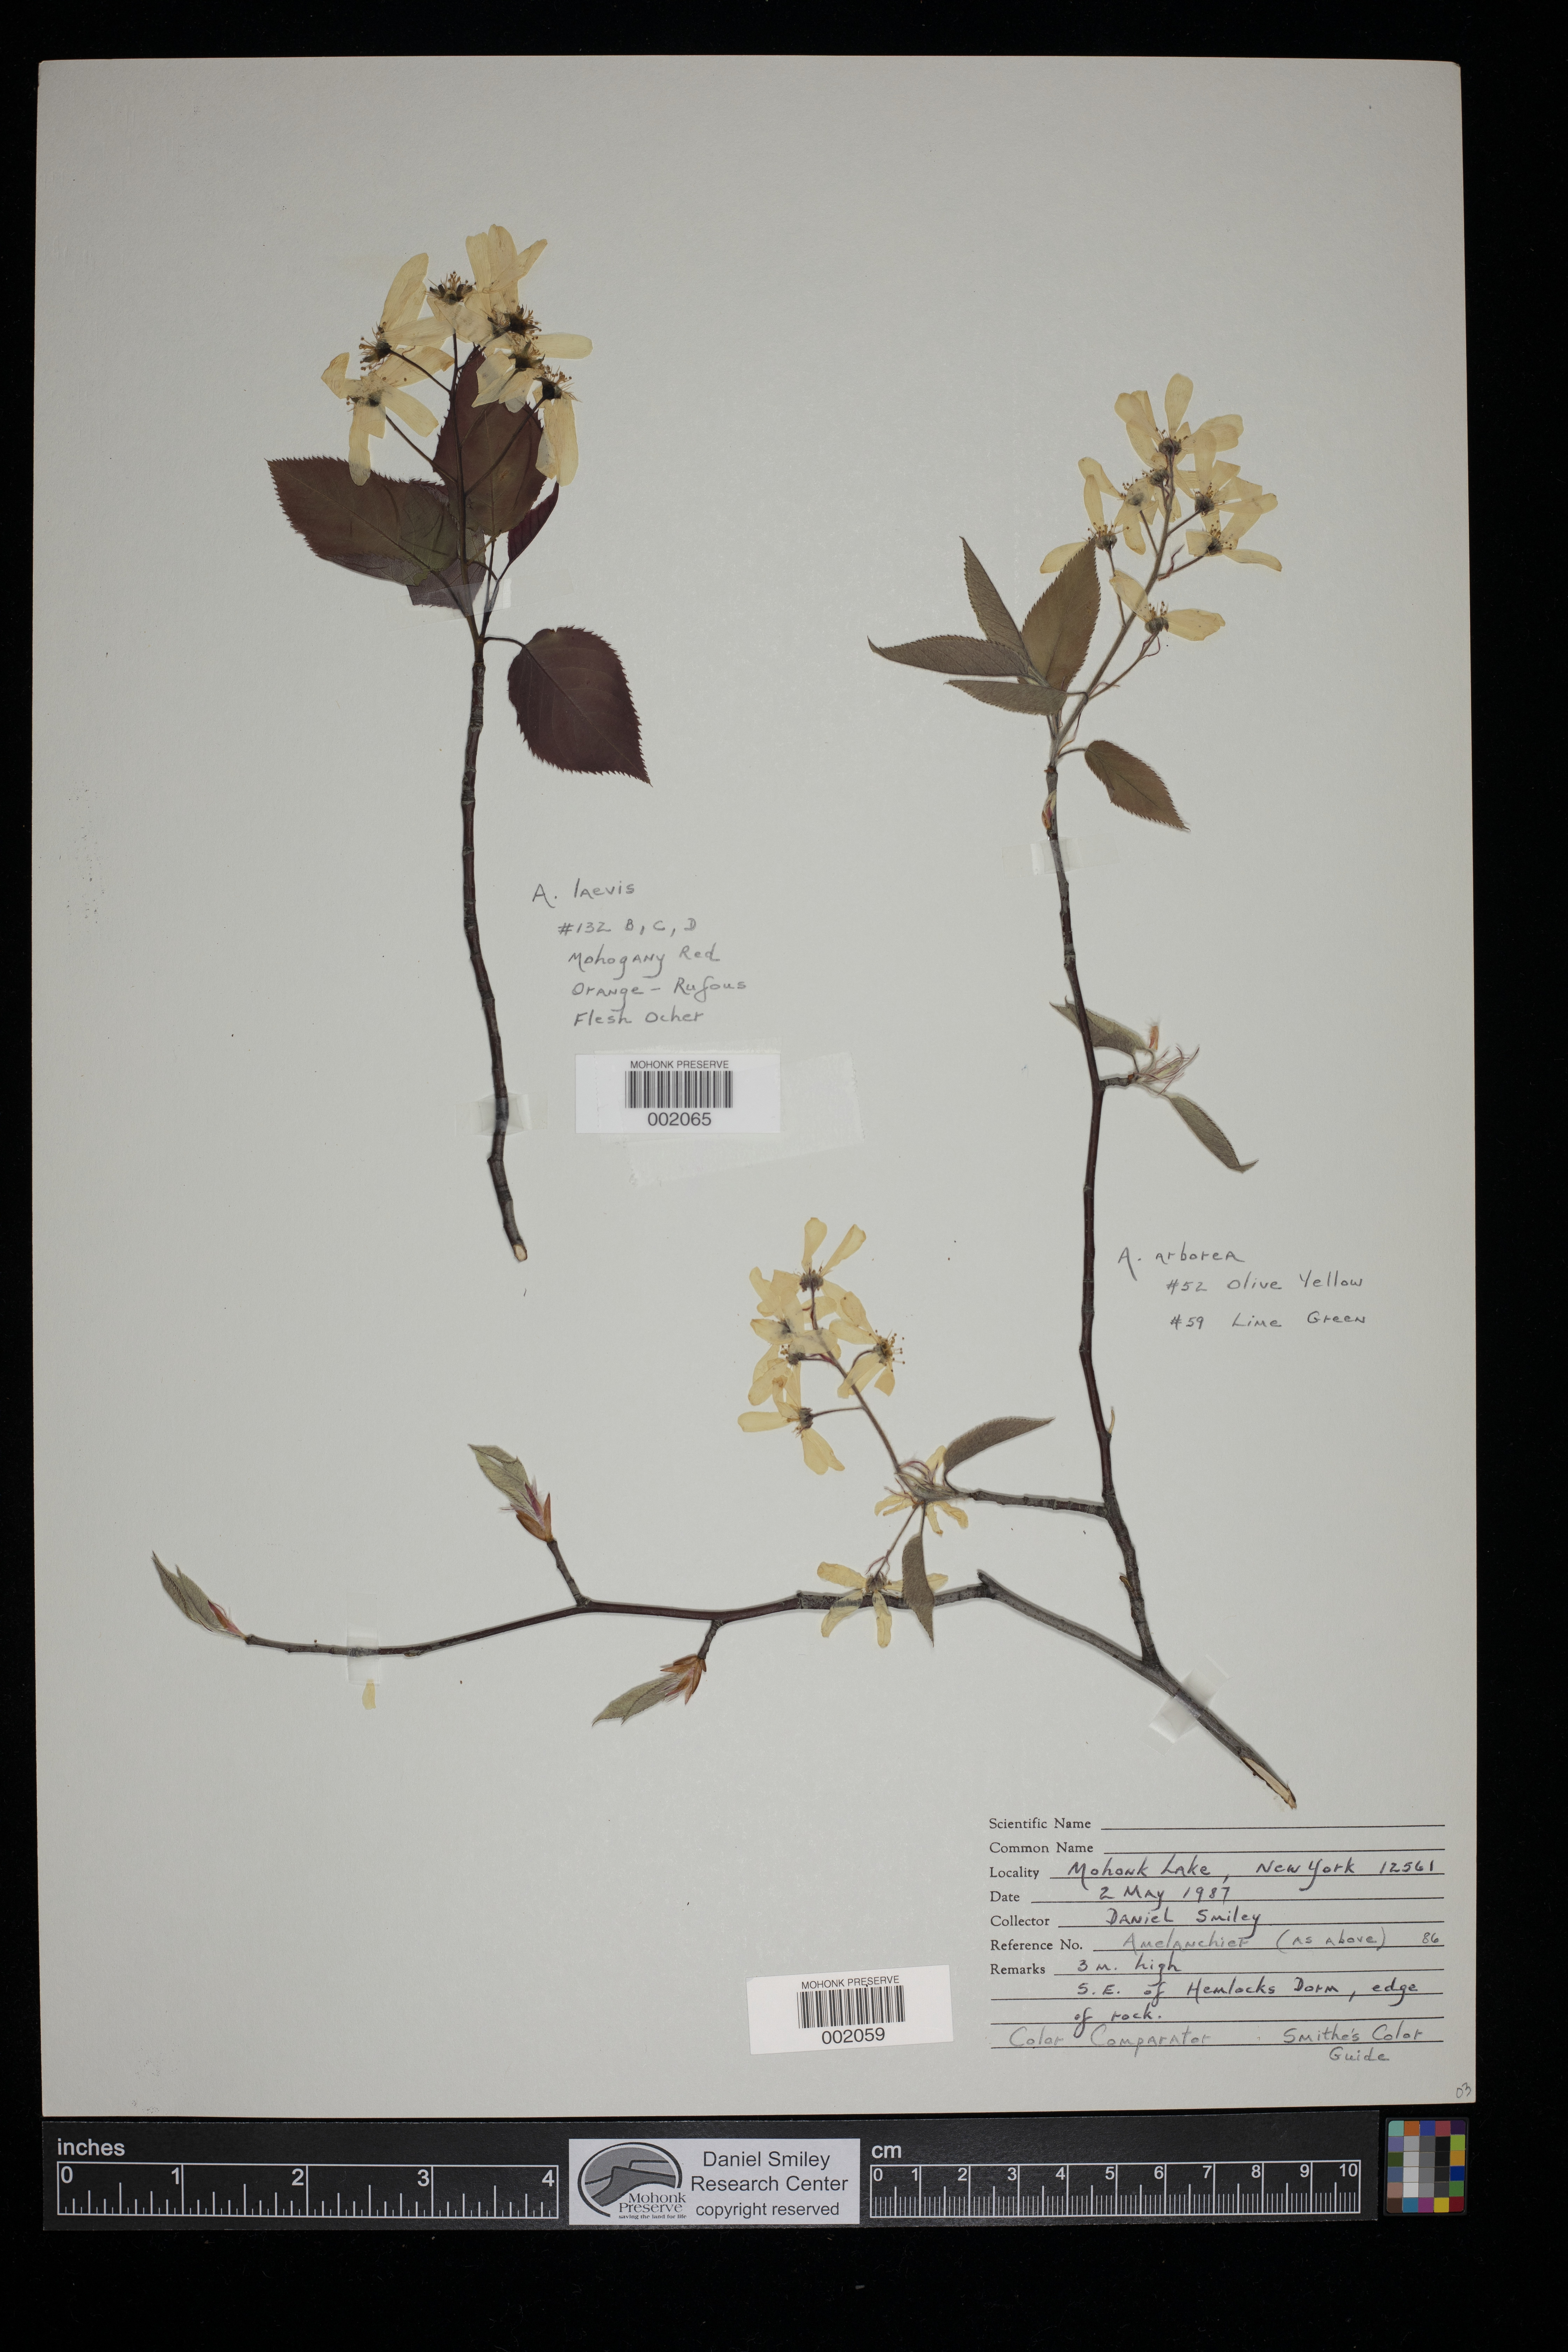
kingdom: Plantae
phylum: Tracheophyta
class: Magnoliopsida
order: Rosales
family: Rosaceae
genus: Amelanchier
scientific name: Amelanchier arborea
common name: Downy serviceberry
